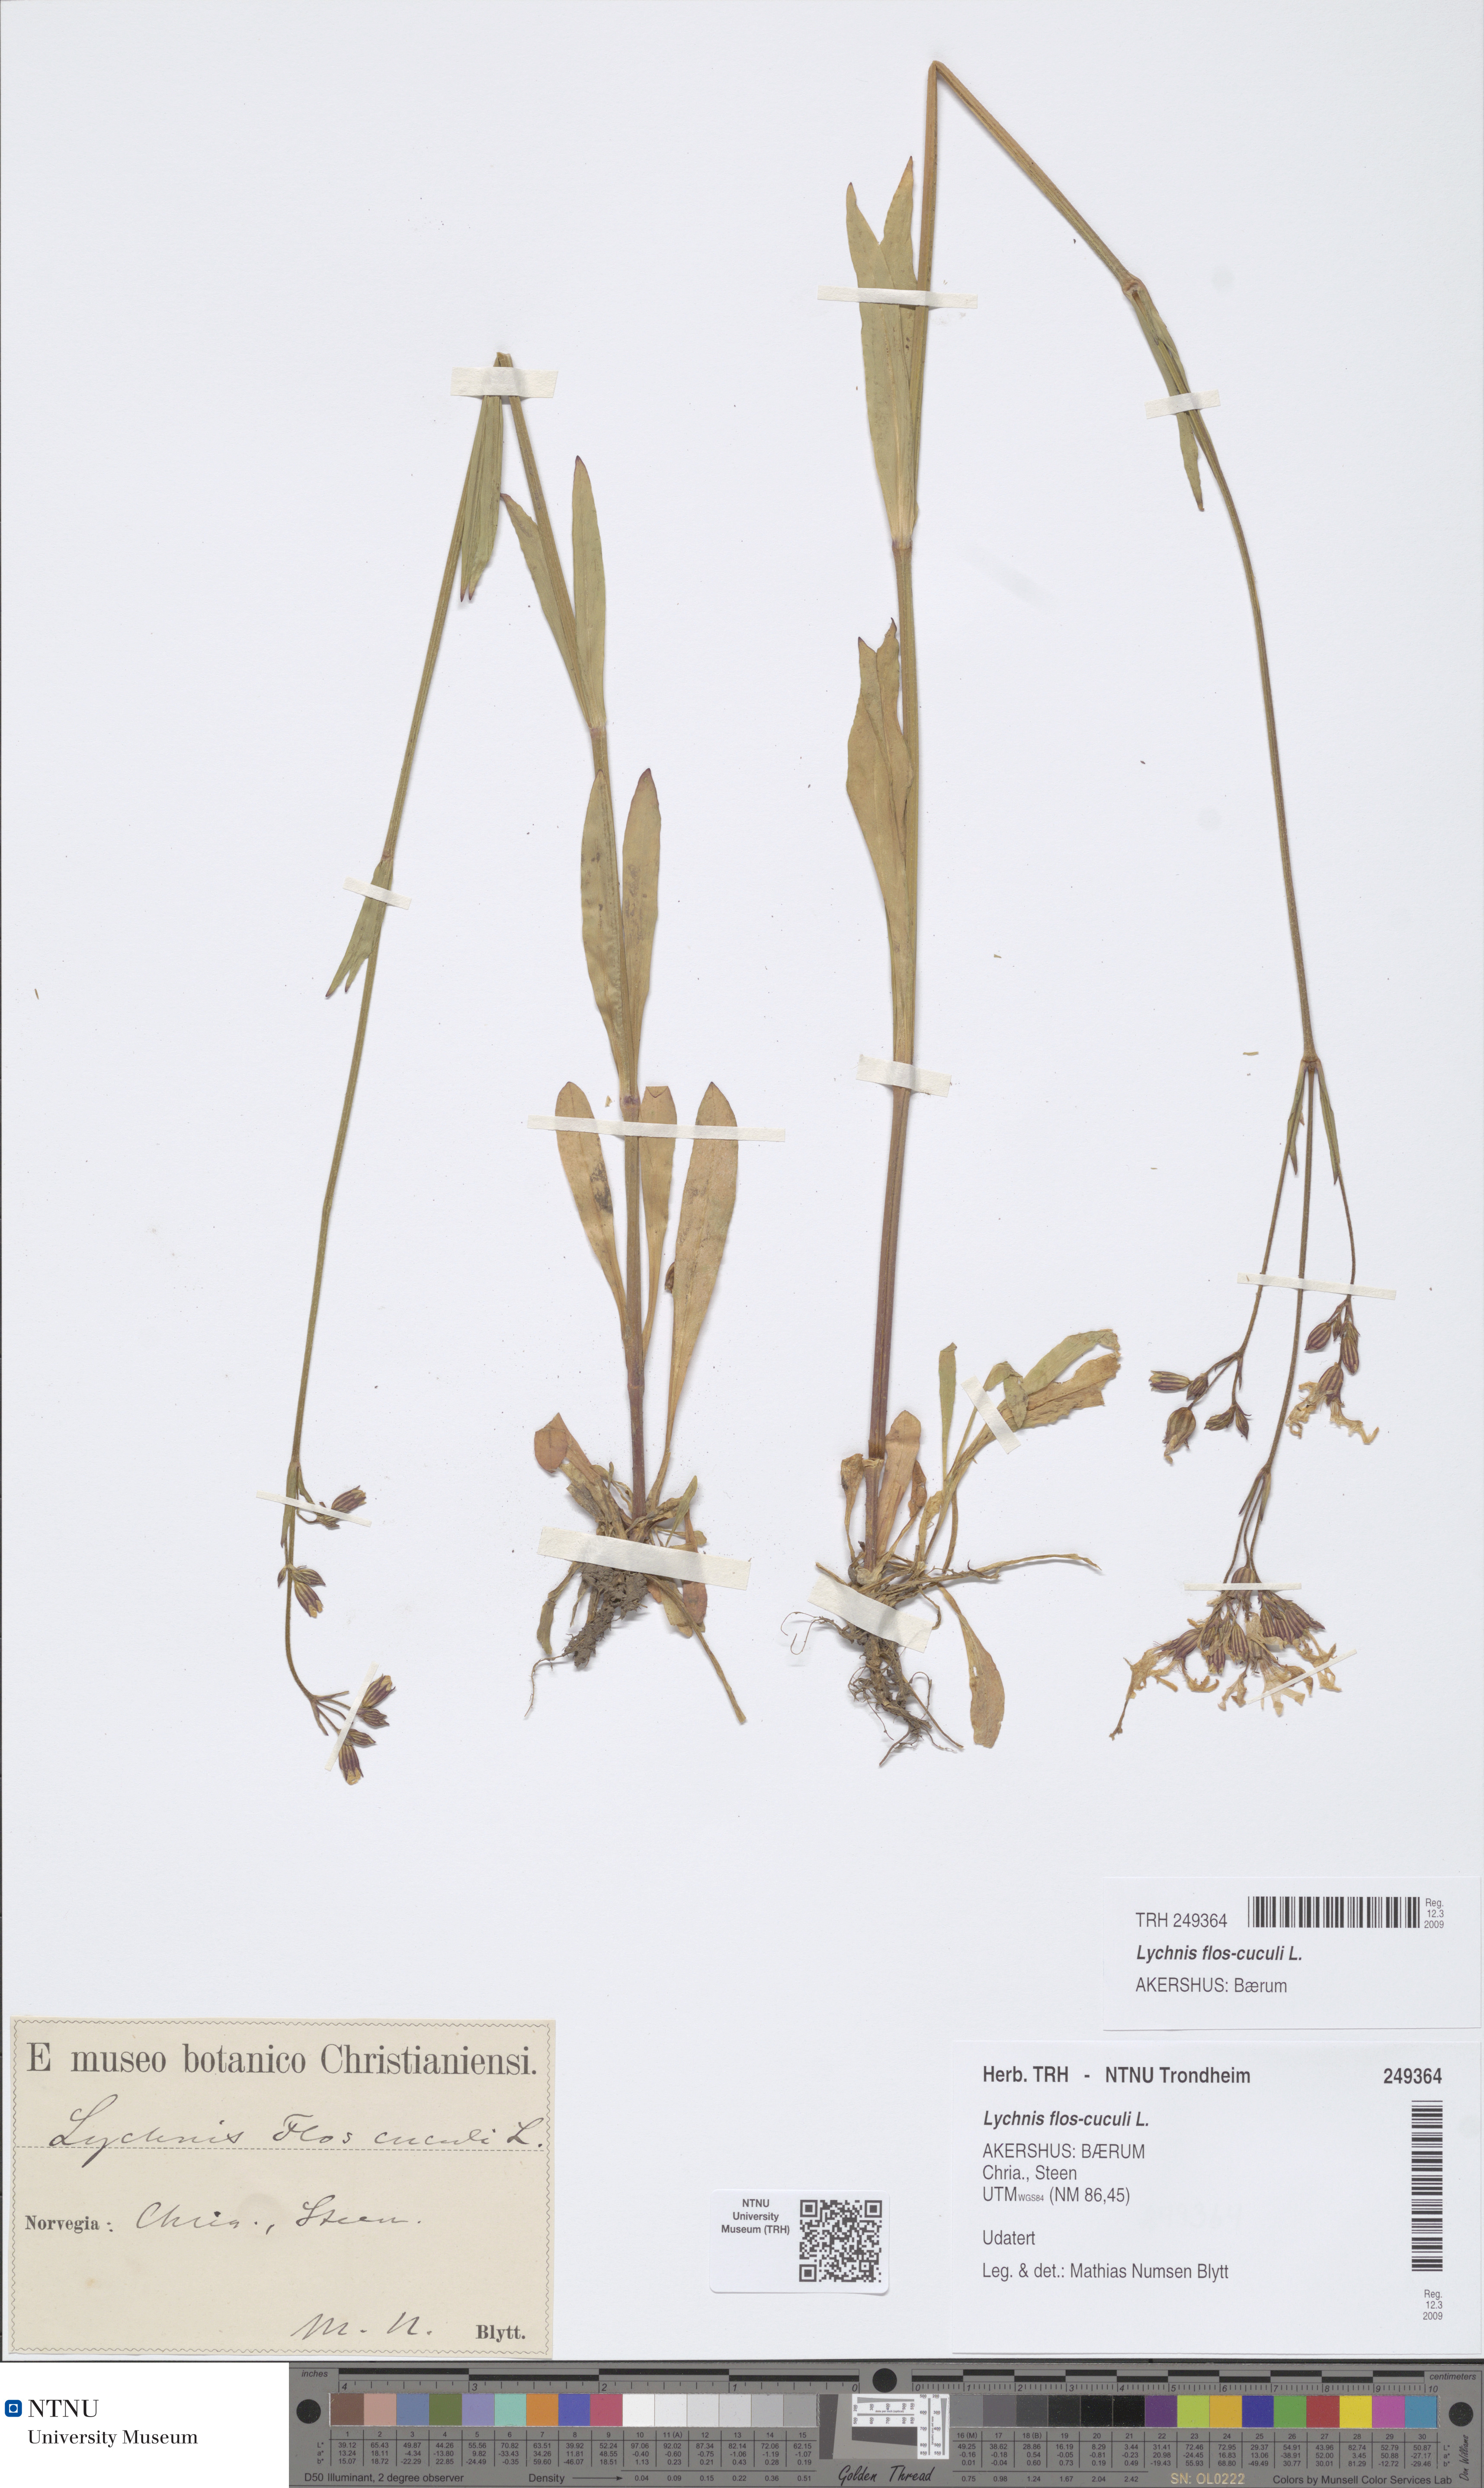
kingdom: Plantae
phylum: Tracheophyta
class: Magnoliopsida
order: Caryophyllales
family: Caryophyllaceae
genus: Silene
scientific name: Silene flos-cuculi
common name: Ragged-robin
